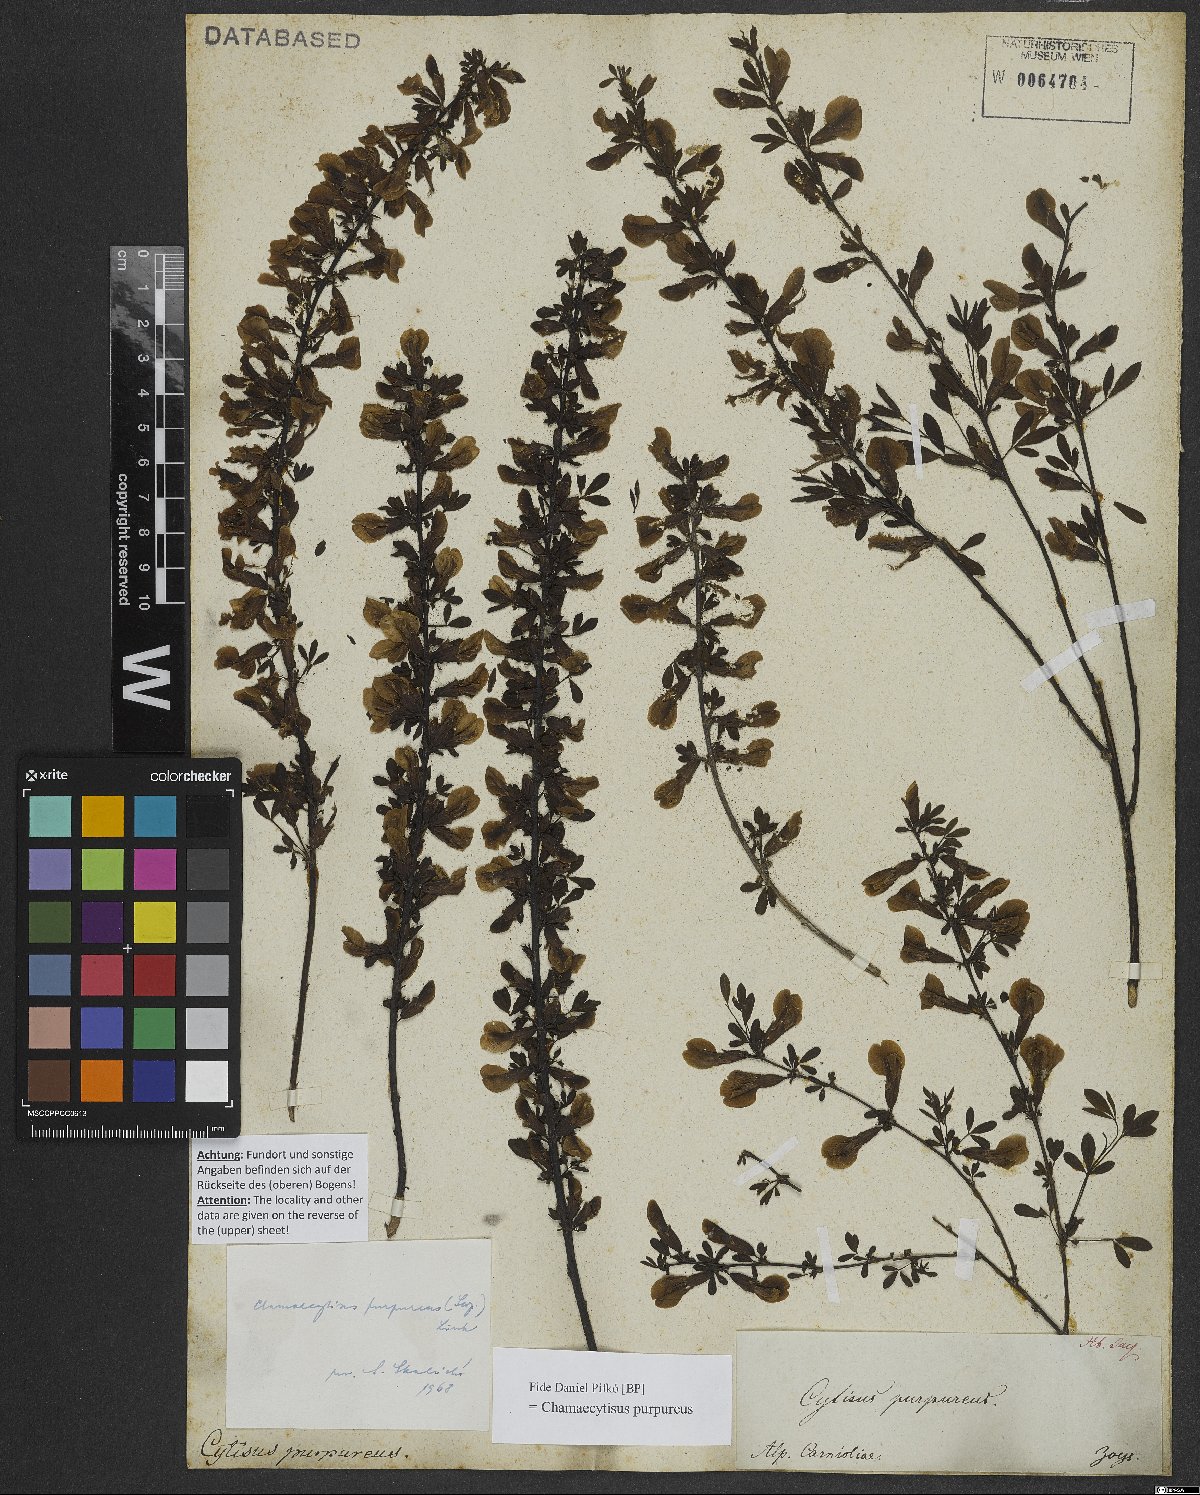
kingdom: Plantae
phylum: Tracheophyta
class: Magnoliopsida
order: Fabales
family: Fabaceae
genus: Chamaecytisus
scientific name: Chamaecytisus purpureus
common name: Purple broom
